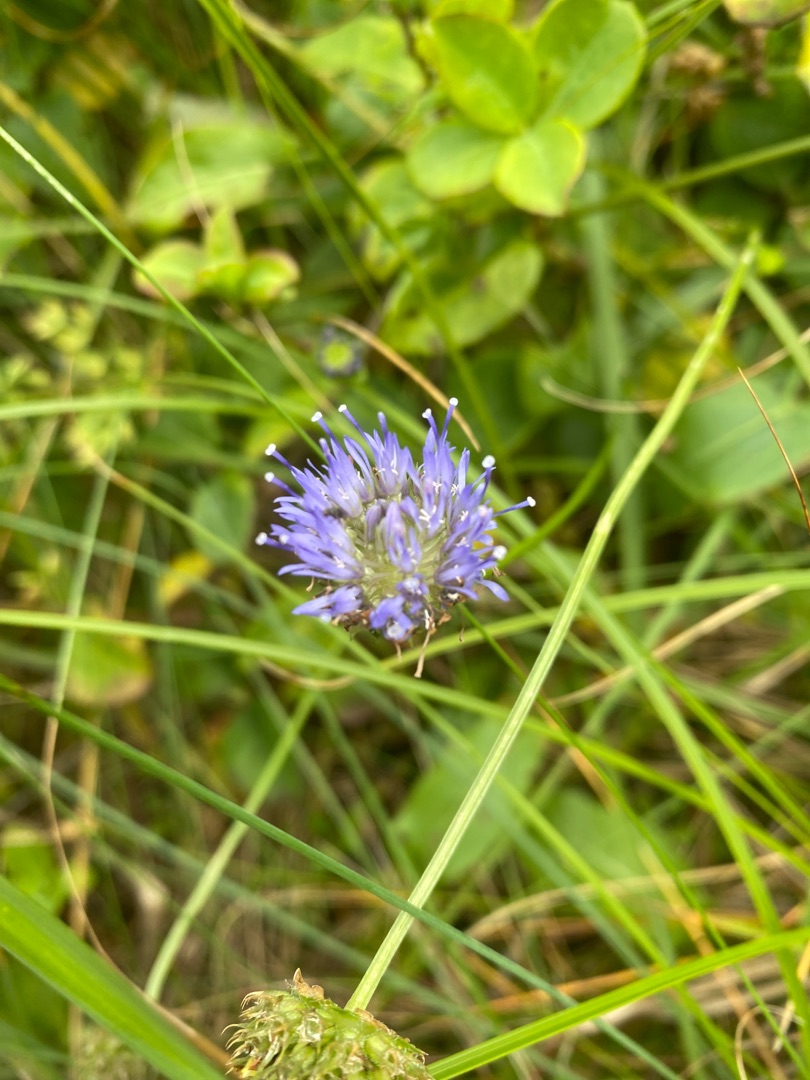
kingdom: Plantae
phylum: Tracheophyta
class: Magnoliopsida
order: Asterales
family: Campanulaceae
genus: Jasione
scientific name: Jasione montana
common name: Blåmunke
